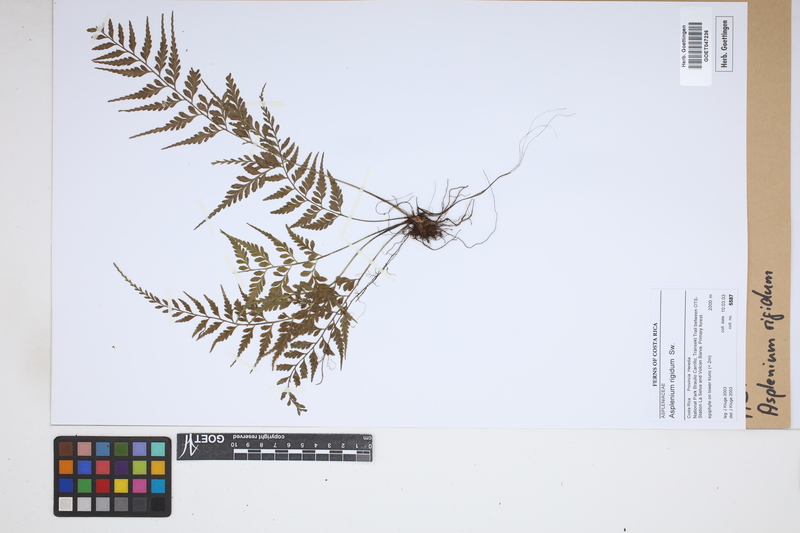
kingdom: Plantae
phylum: Tracheophyta
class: Polypodiopsida
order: Polypodiales
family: Aspleniaceae
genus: Asplenium
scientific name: Asplenium cuspidatum
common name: Eared spleenwort
